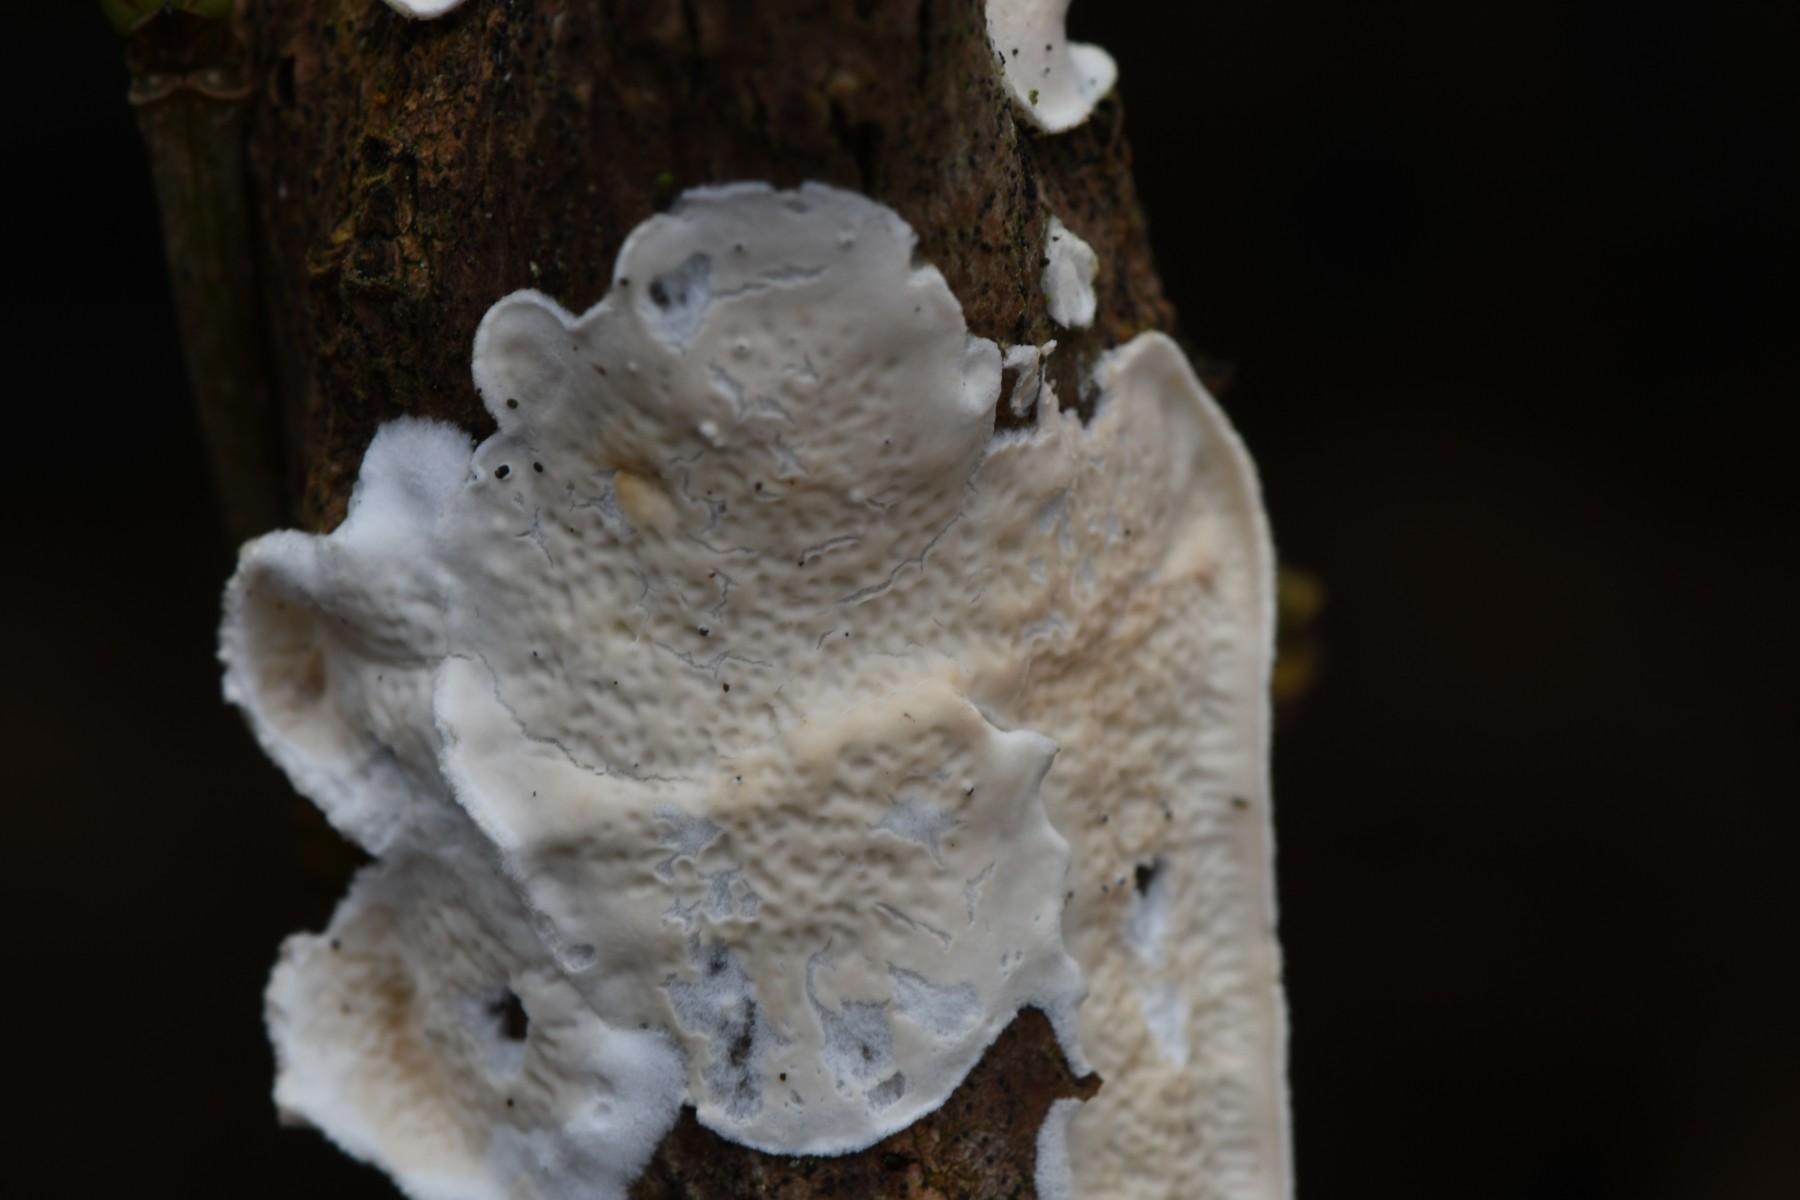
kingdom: Fungi
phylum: Basidiomycota
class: Agaricomycetes
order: Polyporales
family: Irpicaceae
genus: Byssomerulius
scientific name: Byssomerulius corium
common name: læder-åresvamp
